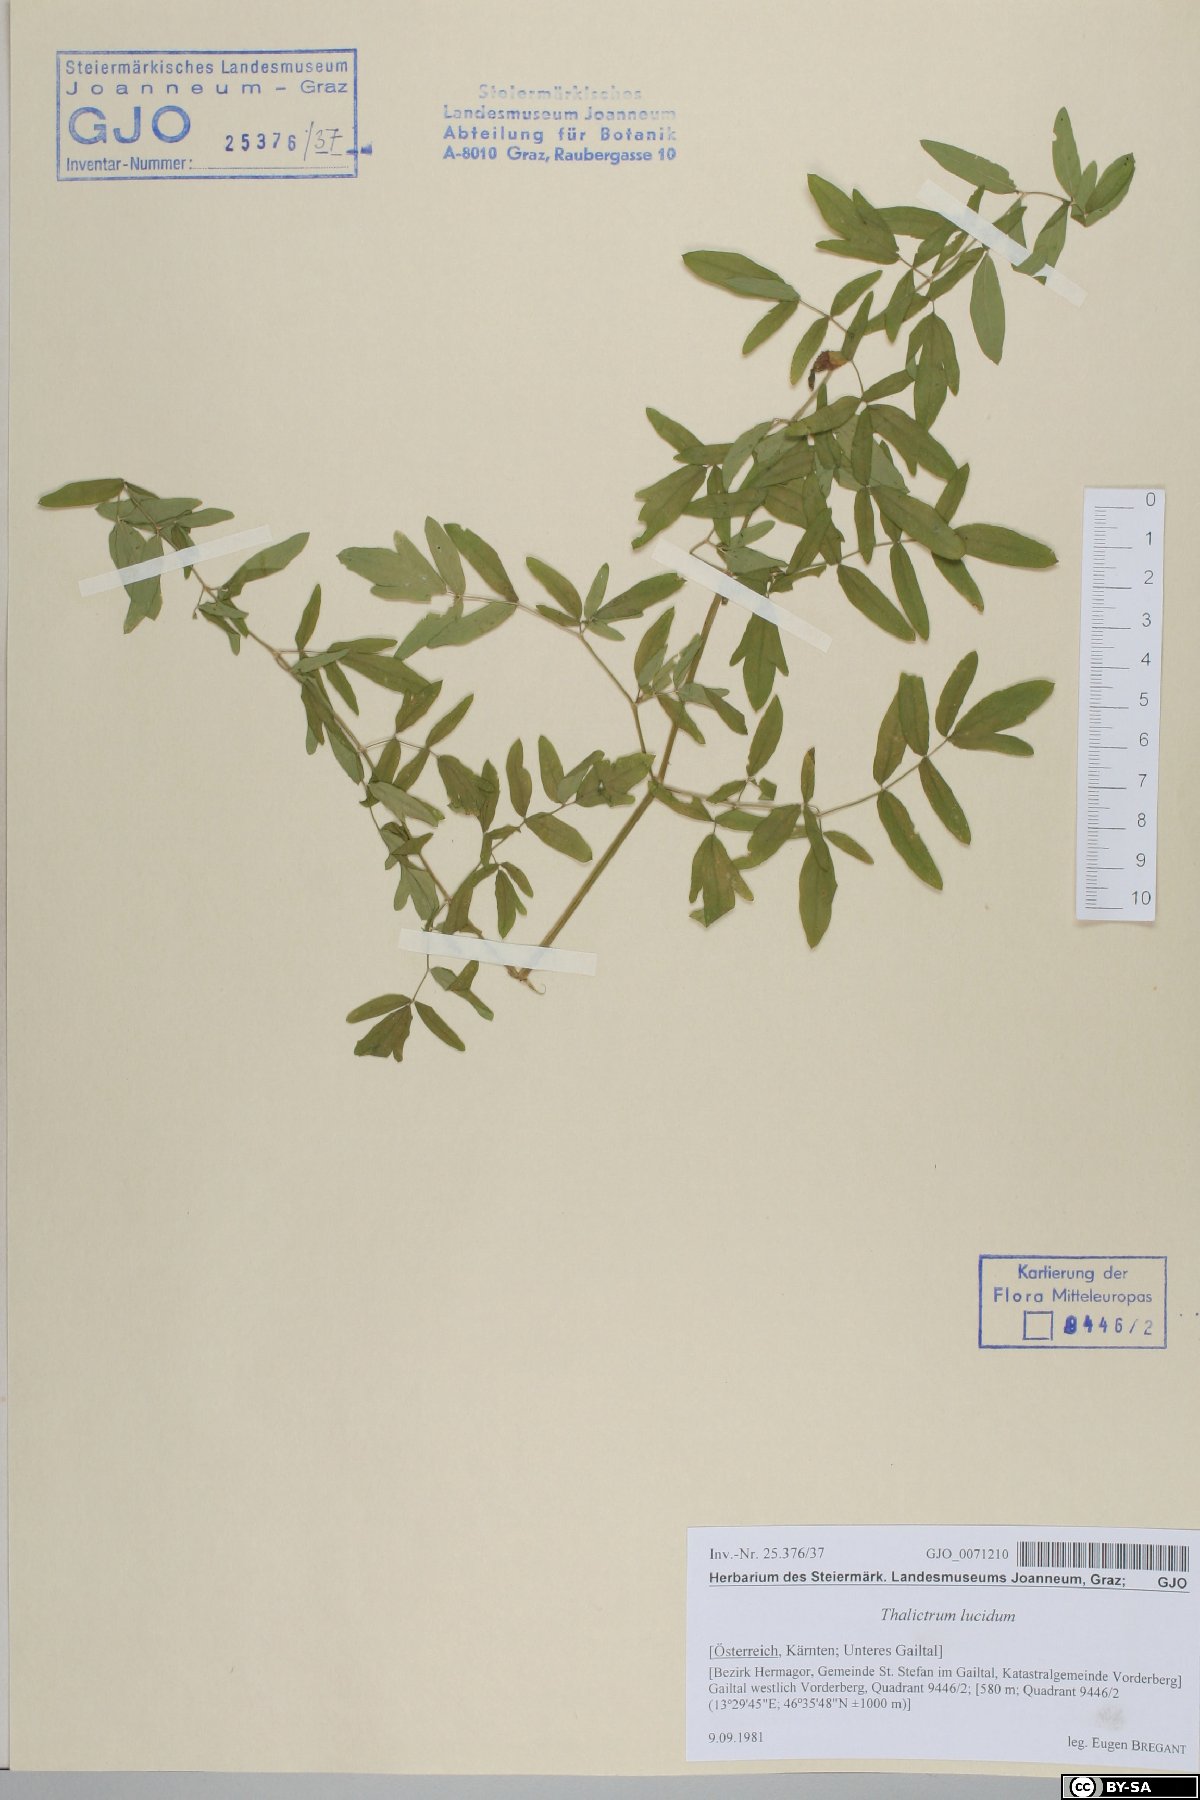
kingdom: Plantae
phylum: Tracheophyta
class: Magnoliopsida
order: Ranunculales
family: Ranunculaceae
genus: Thalictrum
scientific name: Thalictrum lucidum
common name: Shining meadow-rue
